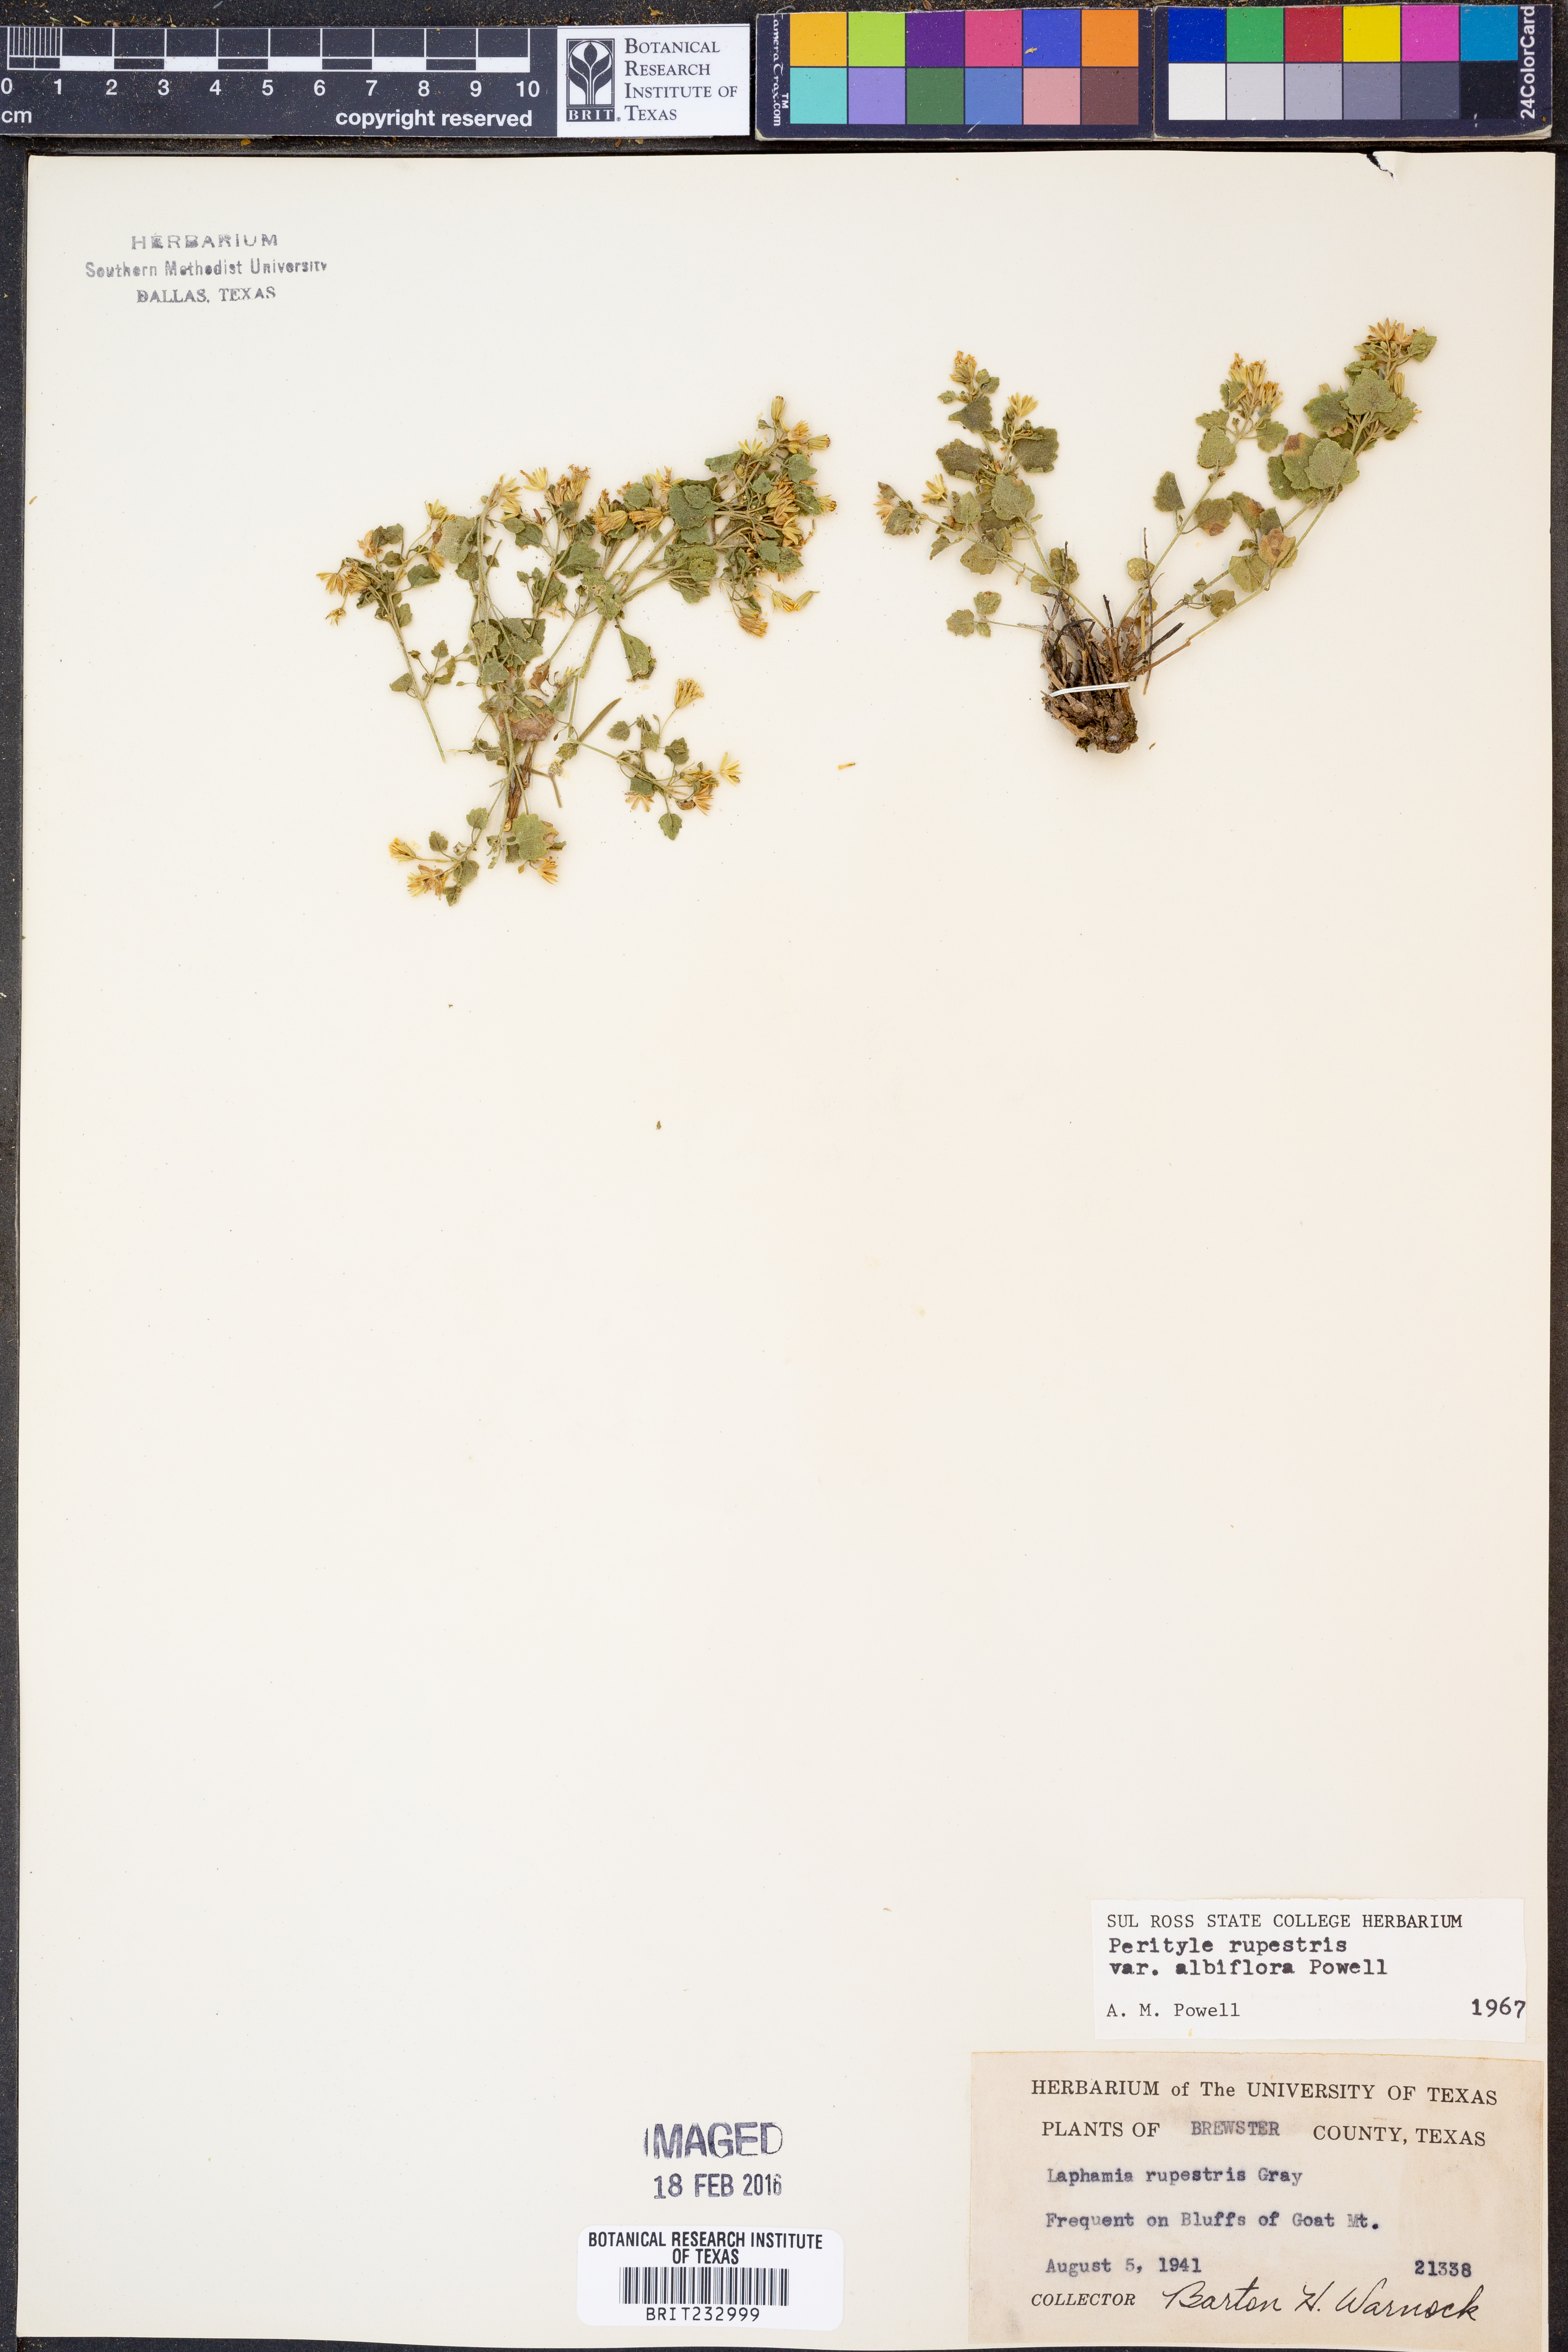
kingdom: Plantae
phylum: Tracheophyta
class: Magnoliopsida
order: Asterales
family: Asteraceae
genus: Laphamia
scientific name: Laphamia rupestris
